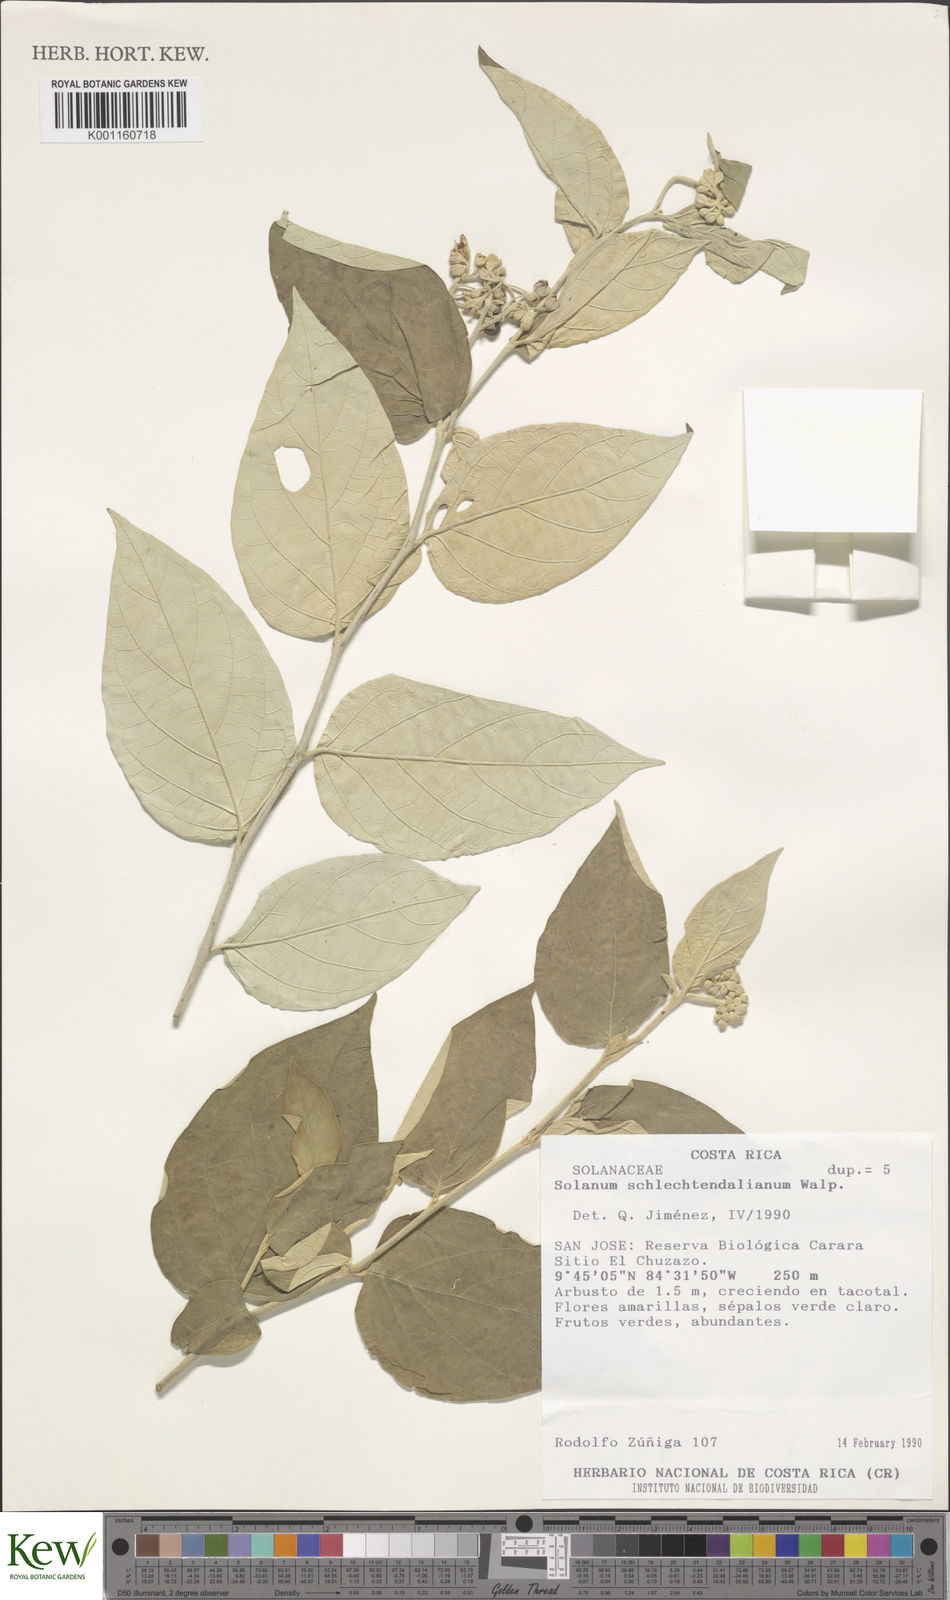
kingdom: Plantae
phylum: Tracheophyta
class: Magnoliopsida
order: Solanales
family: Solanaceae
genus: Solanum
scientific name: Solanum schlechtendalianum
